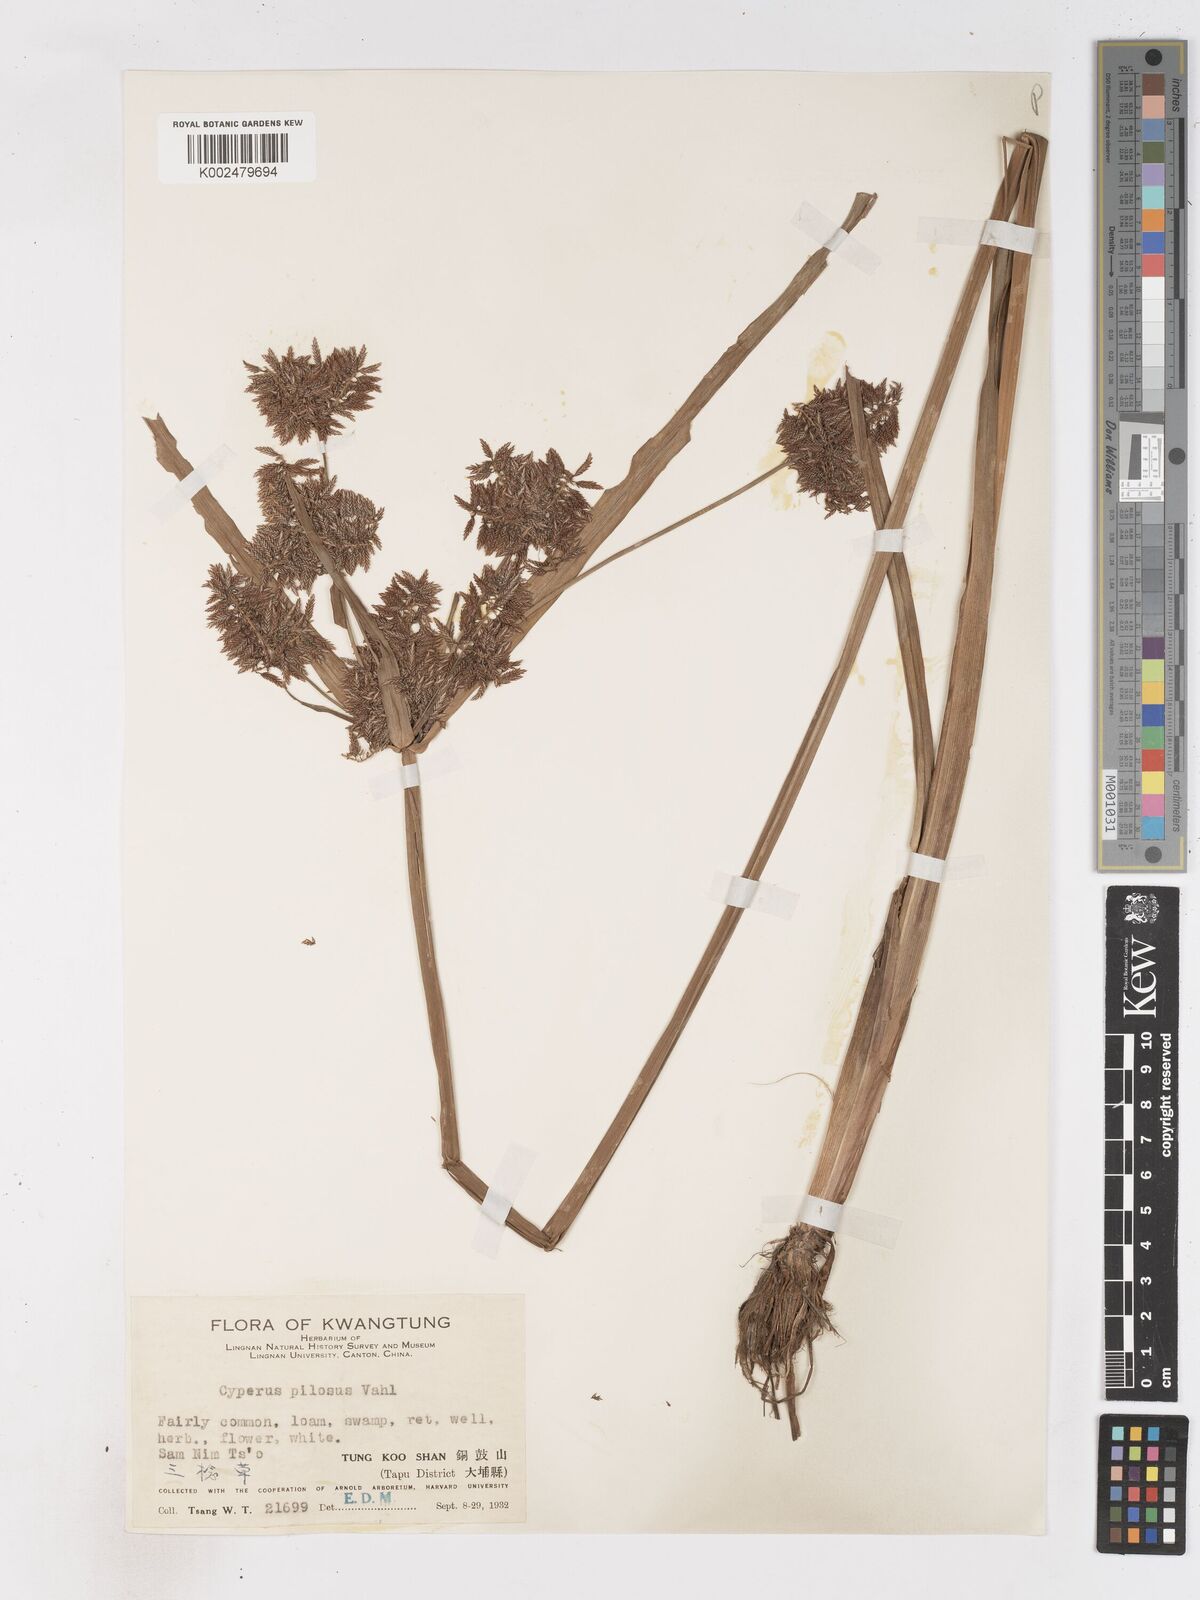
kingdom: Plantae
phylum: Tracheophyta
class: Liliopsida
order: Poales
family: Cyperaceae
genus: Cyperus
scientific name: Cyperus pilosus
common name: Fuzzy flatsedge
